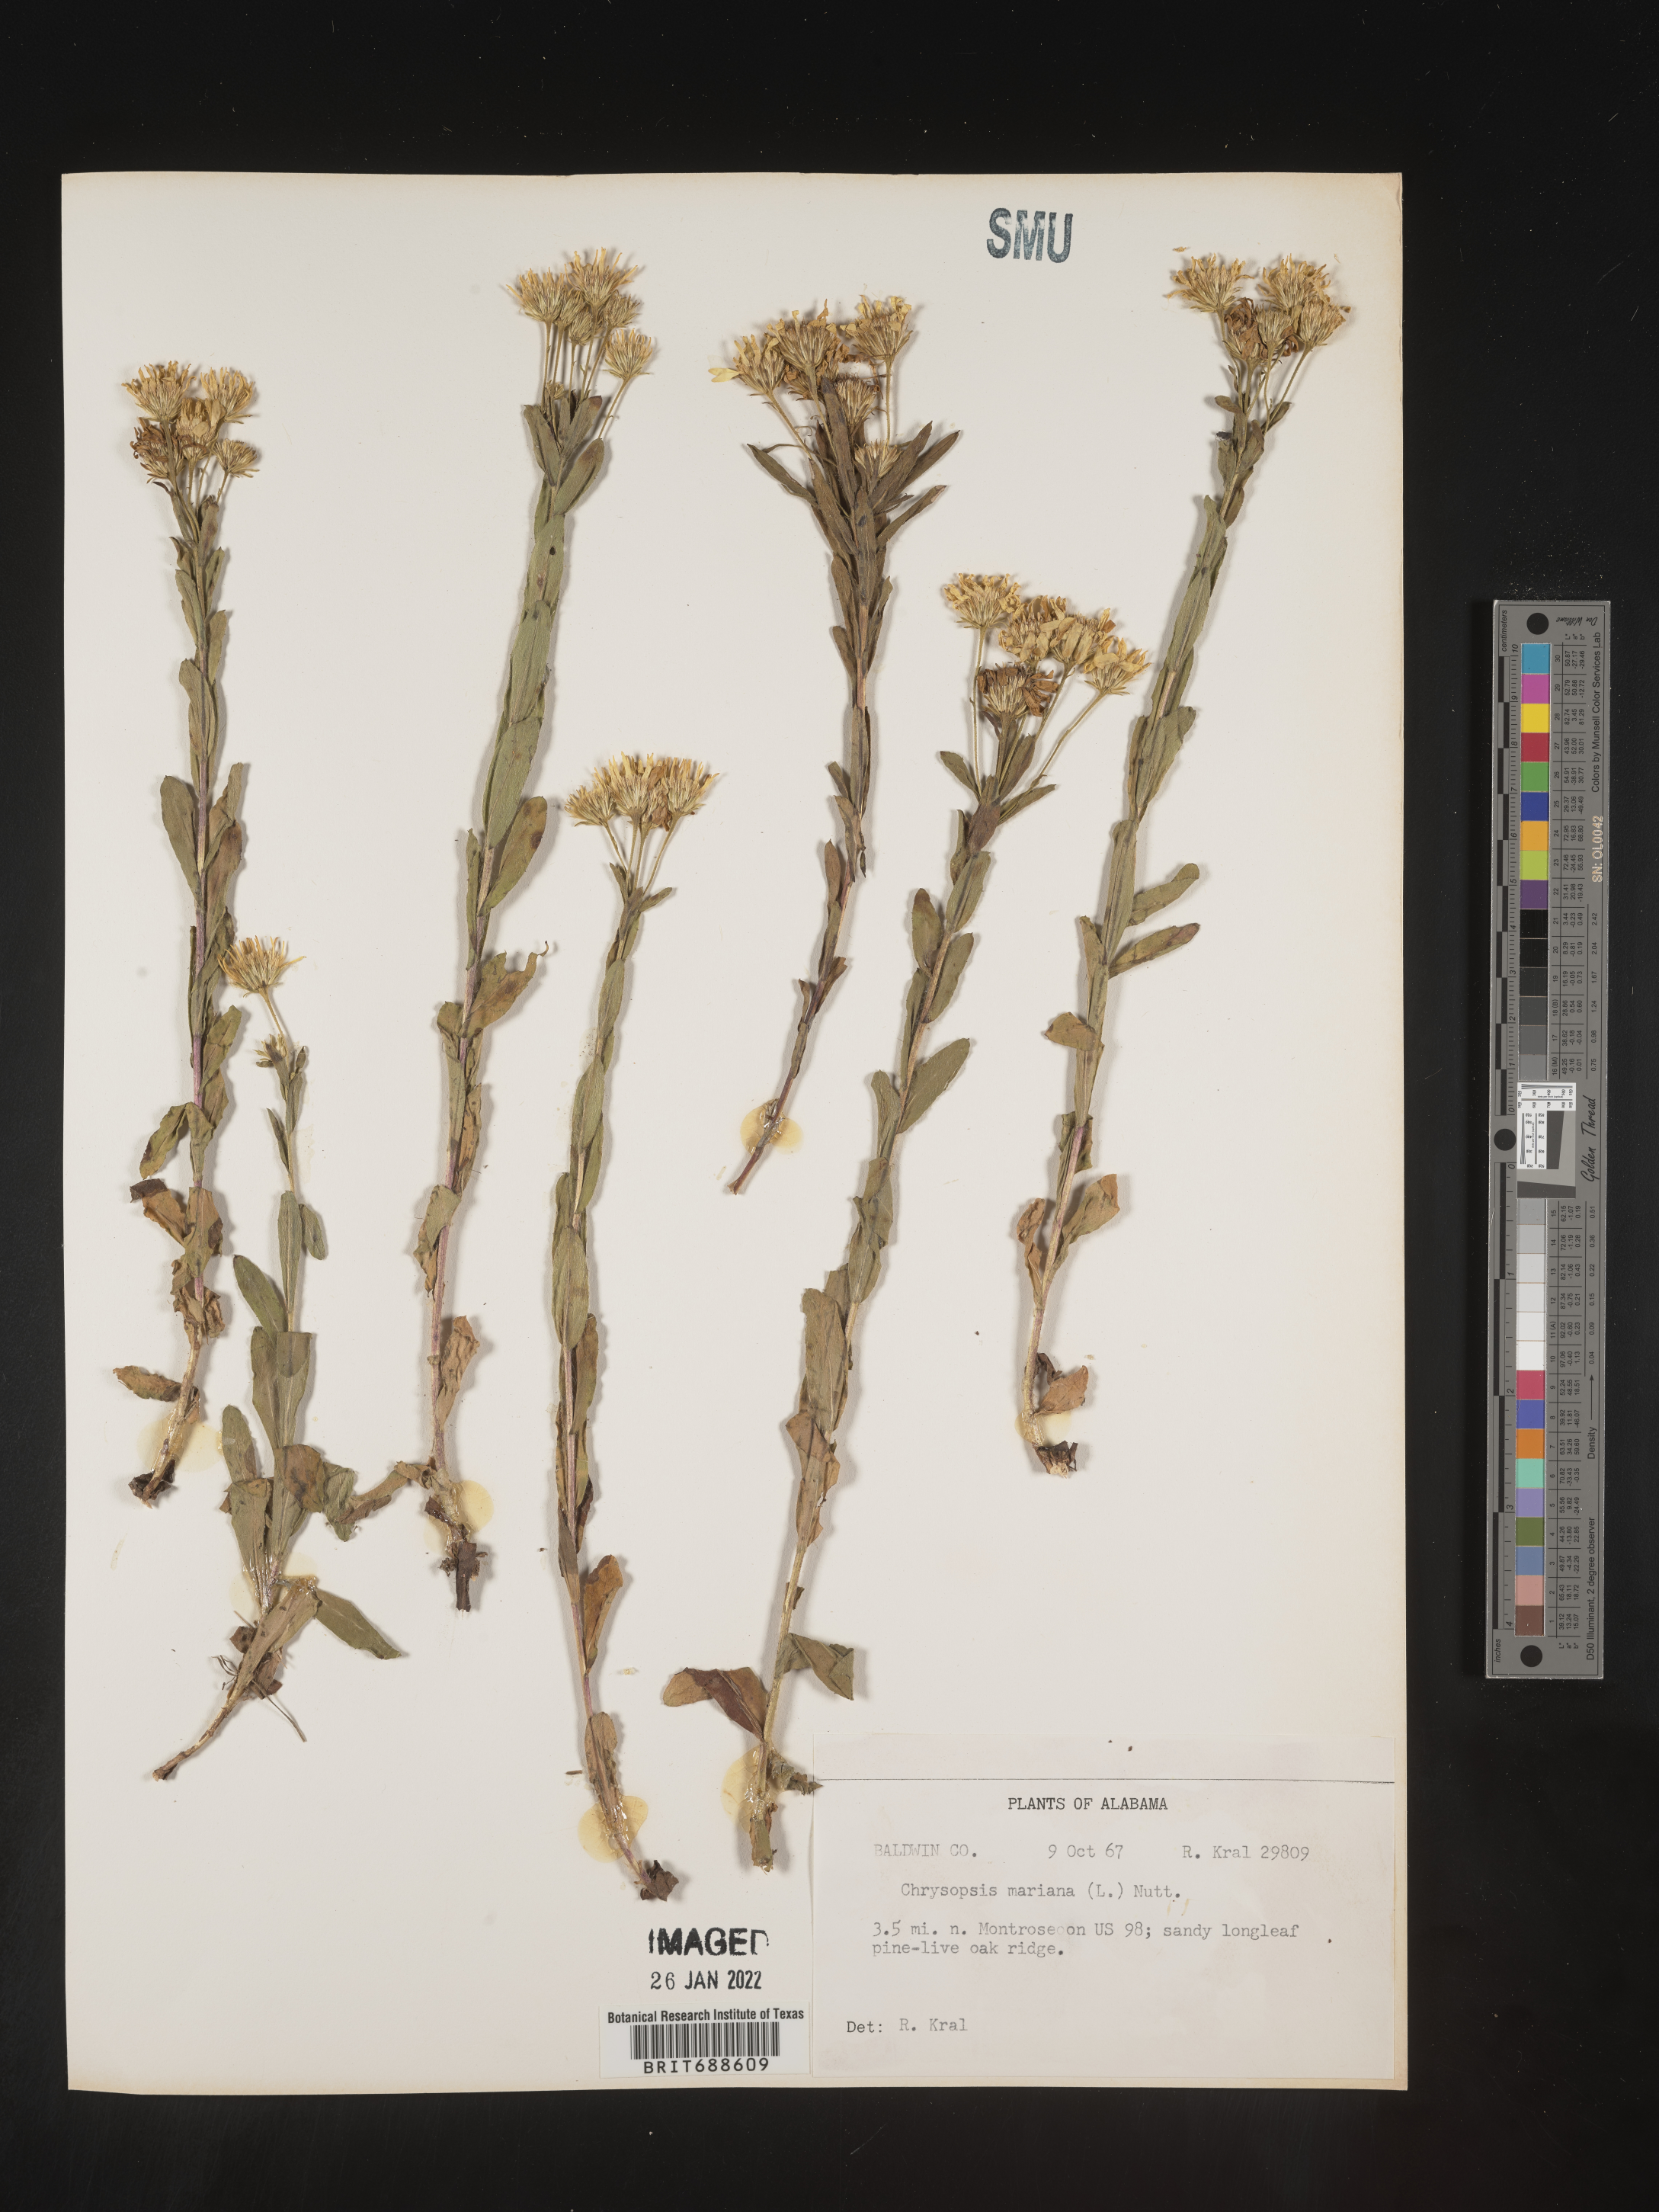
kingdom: Plantae
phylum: Tracheophyta
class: Magnoliopsida
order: Asterales
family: Asteraceae
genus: Chrysopsis
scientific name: Chrysopsis mariana
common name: Maryland golden-aster
